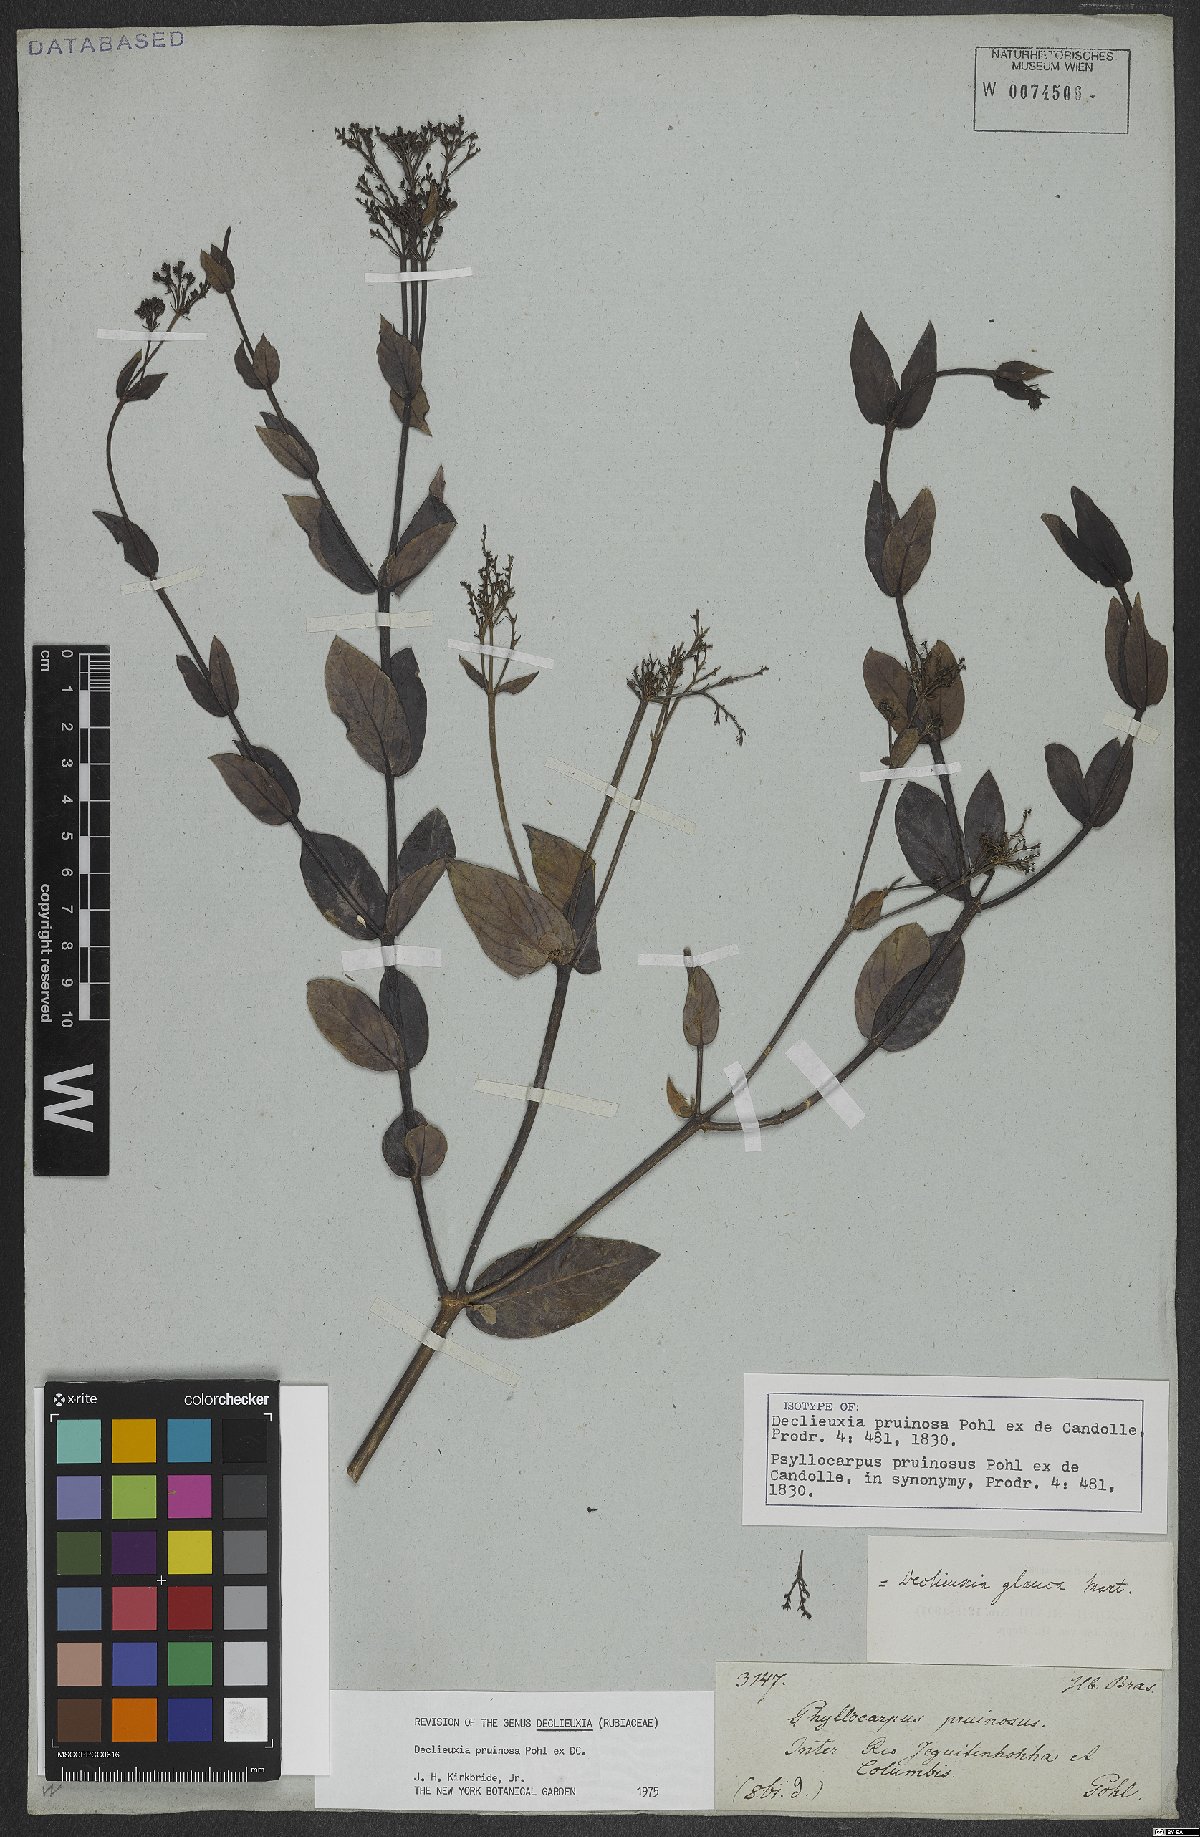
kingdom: Plantae
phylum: Tracheophyta
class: Magnoliopsida
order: Gentianales
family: Rubiaceae
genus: Declieuxia
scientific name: Declieuxia pruinosa
